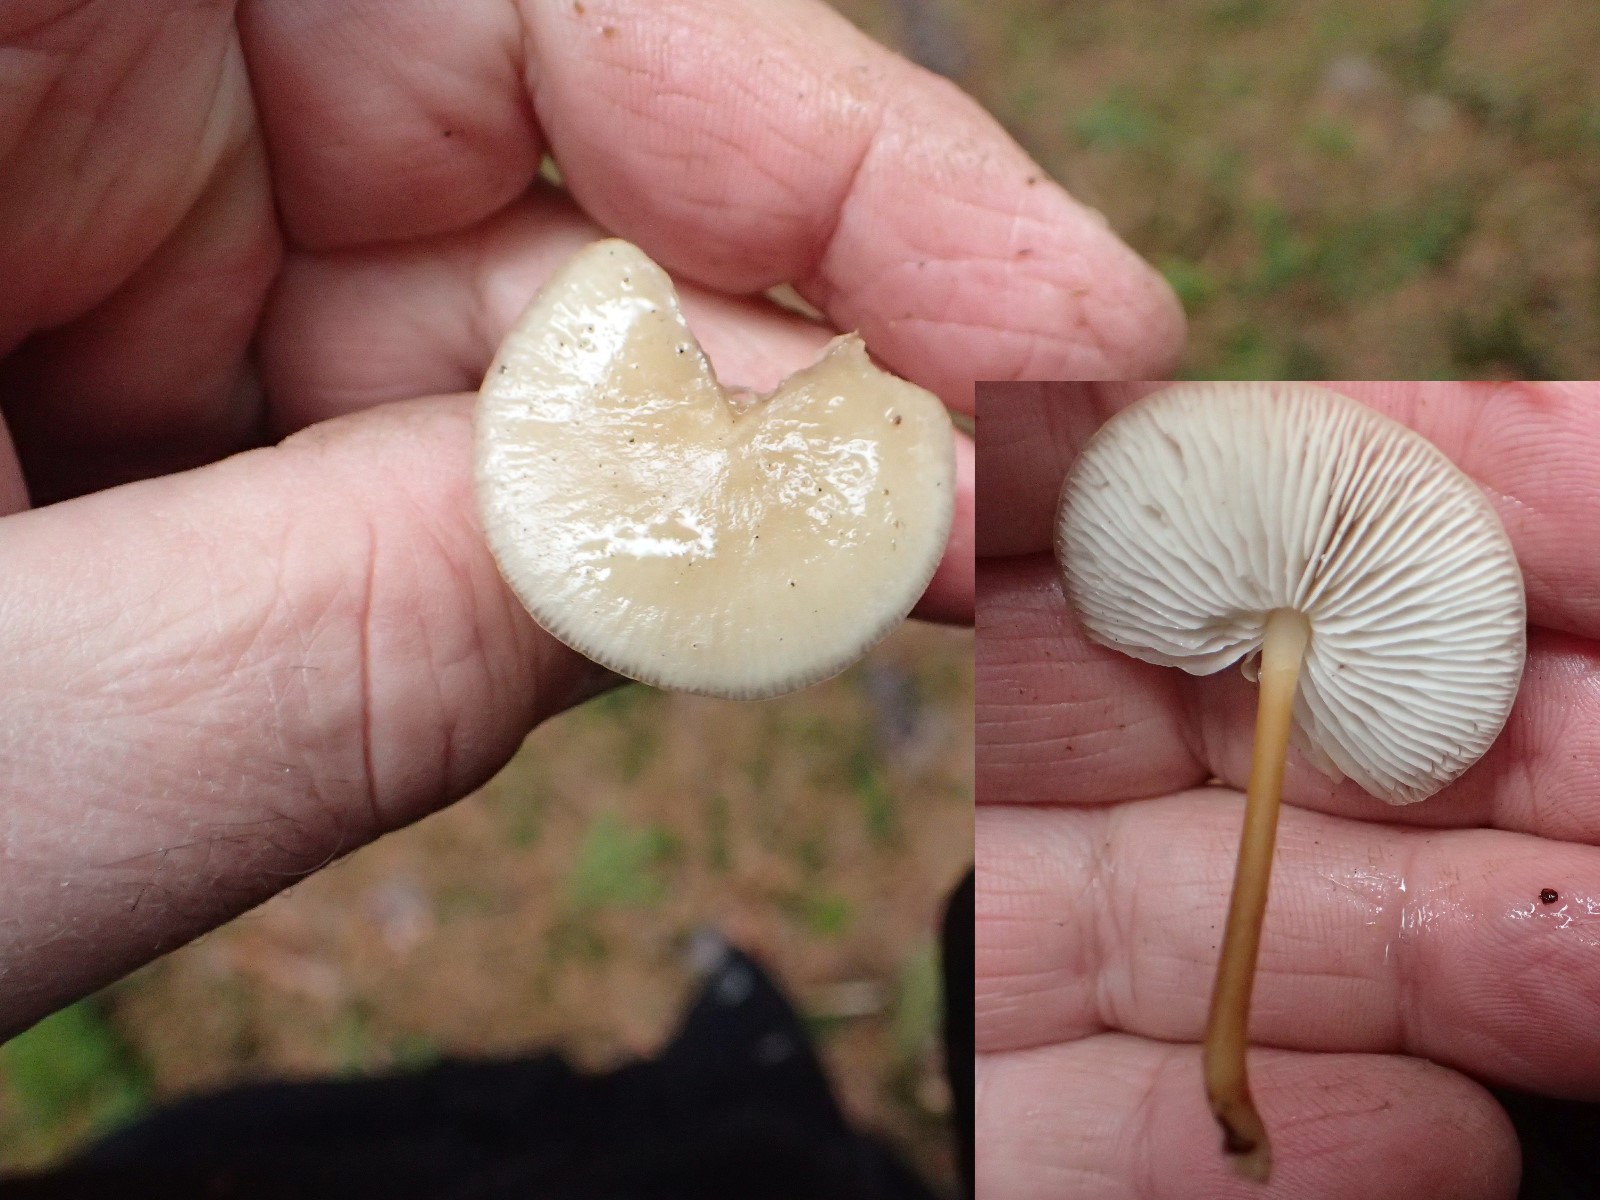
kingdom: Fungi
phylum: Basidiomycota
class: Agaricomycetes
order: Agaricales
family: Physalacriaceae
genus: Strobilurus
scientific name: Strobilurus esculentus
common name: gran-koglehat
